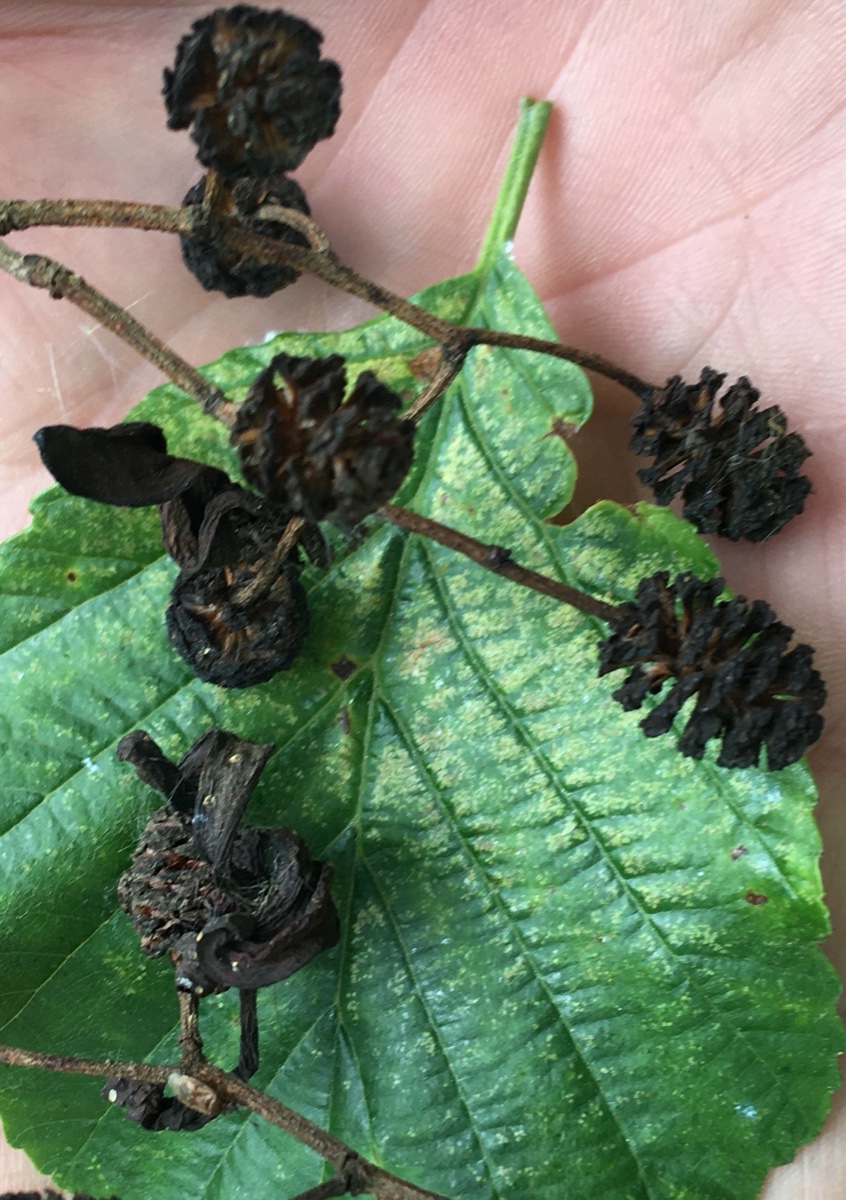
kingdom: Fungi
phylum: Ascomycota
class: Taphrinomycetes
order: Taphrinales
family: Taphrinaceae
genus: Taphrina
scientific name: Taphrina alni
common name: Alder tongue
